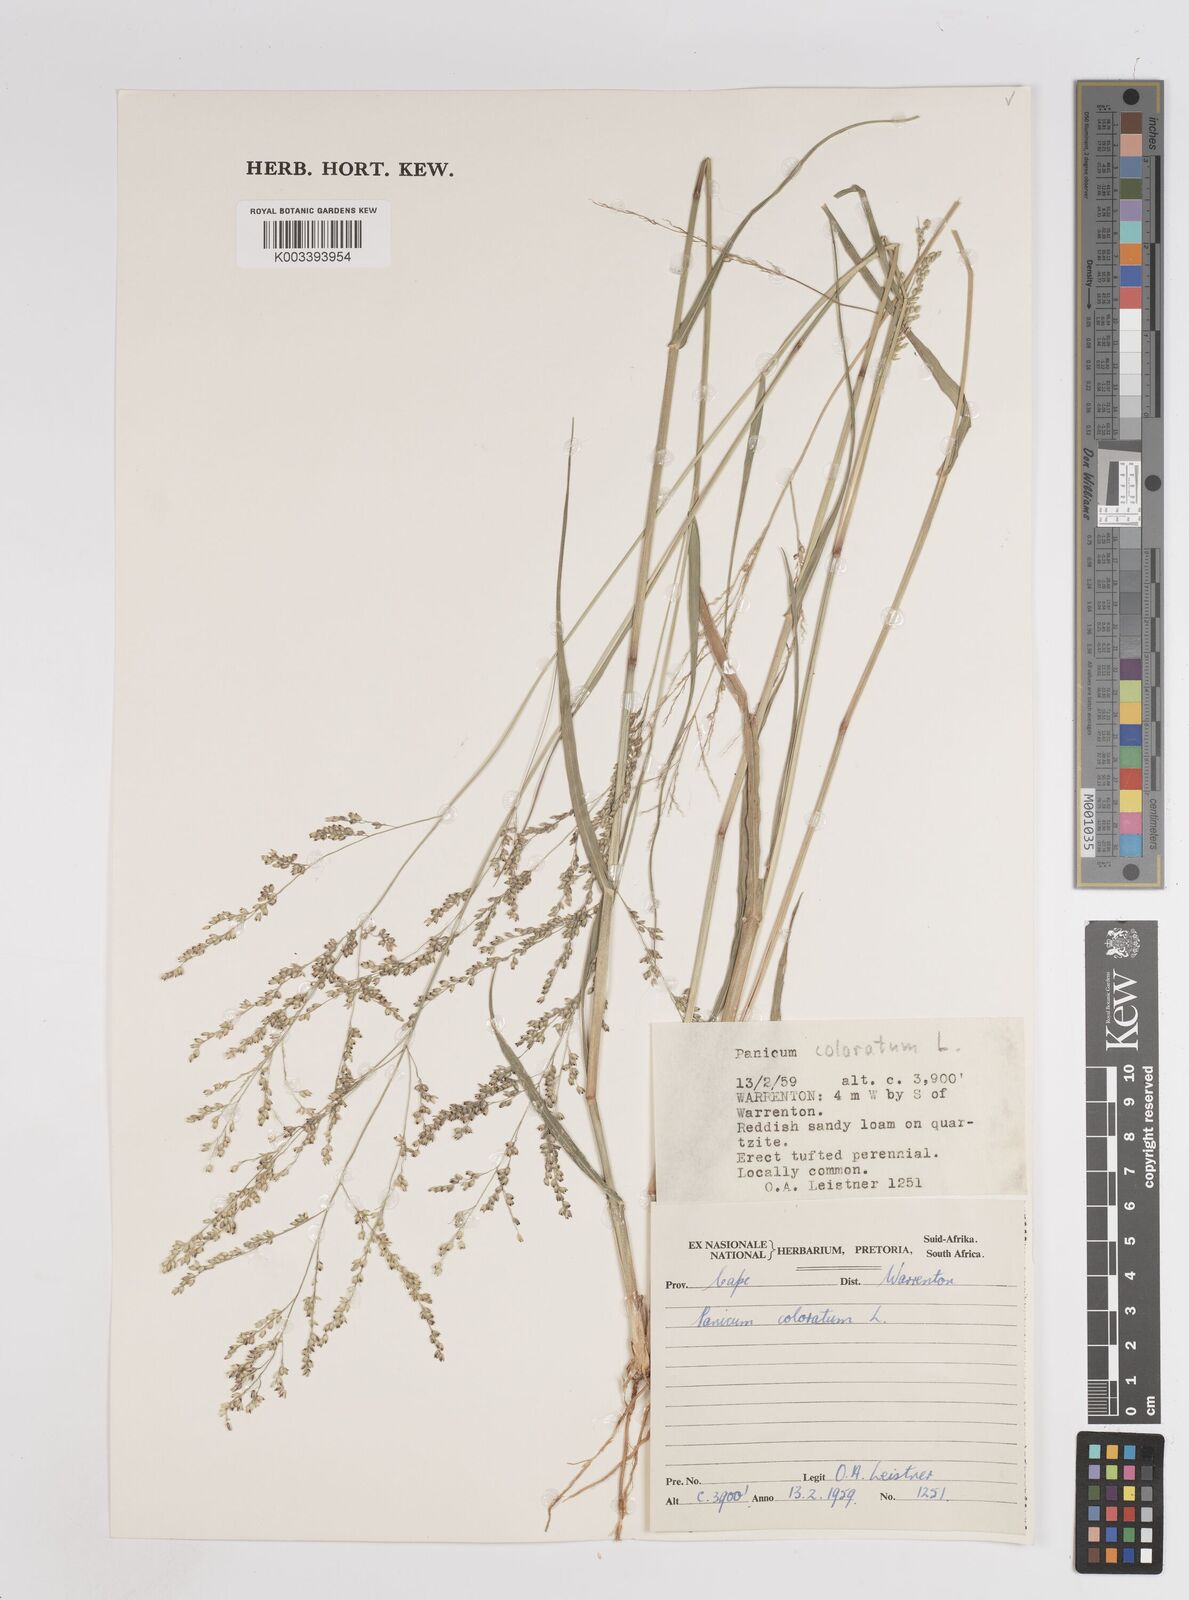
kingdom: Plantae
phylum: Tracheophyta
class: Liliopsida
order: Poales
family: Poaceae
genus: Panicum
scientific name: Panicum coloratum
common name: Kleingrass
